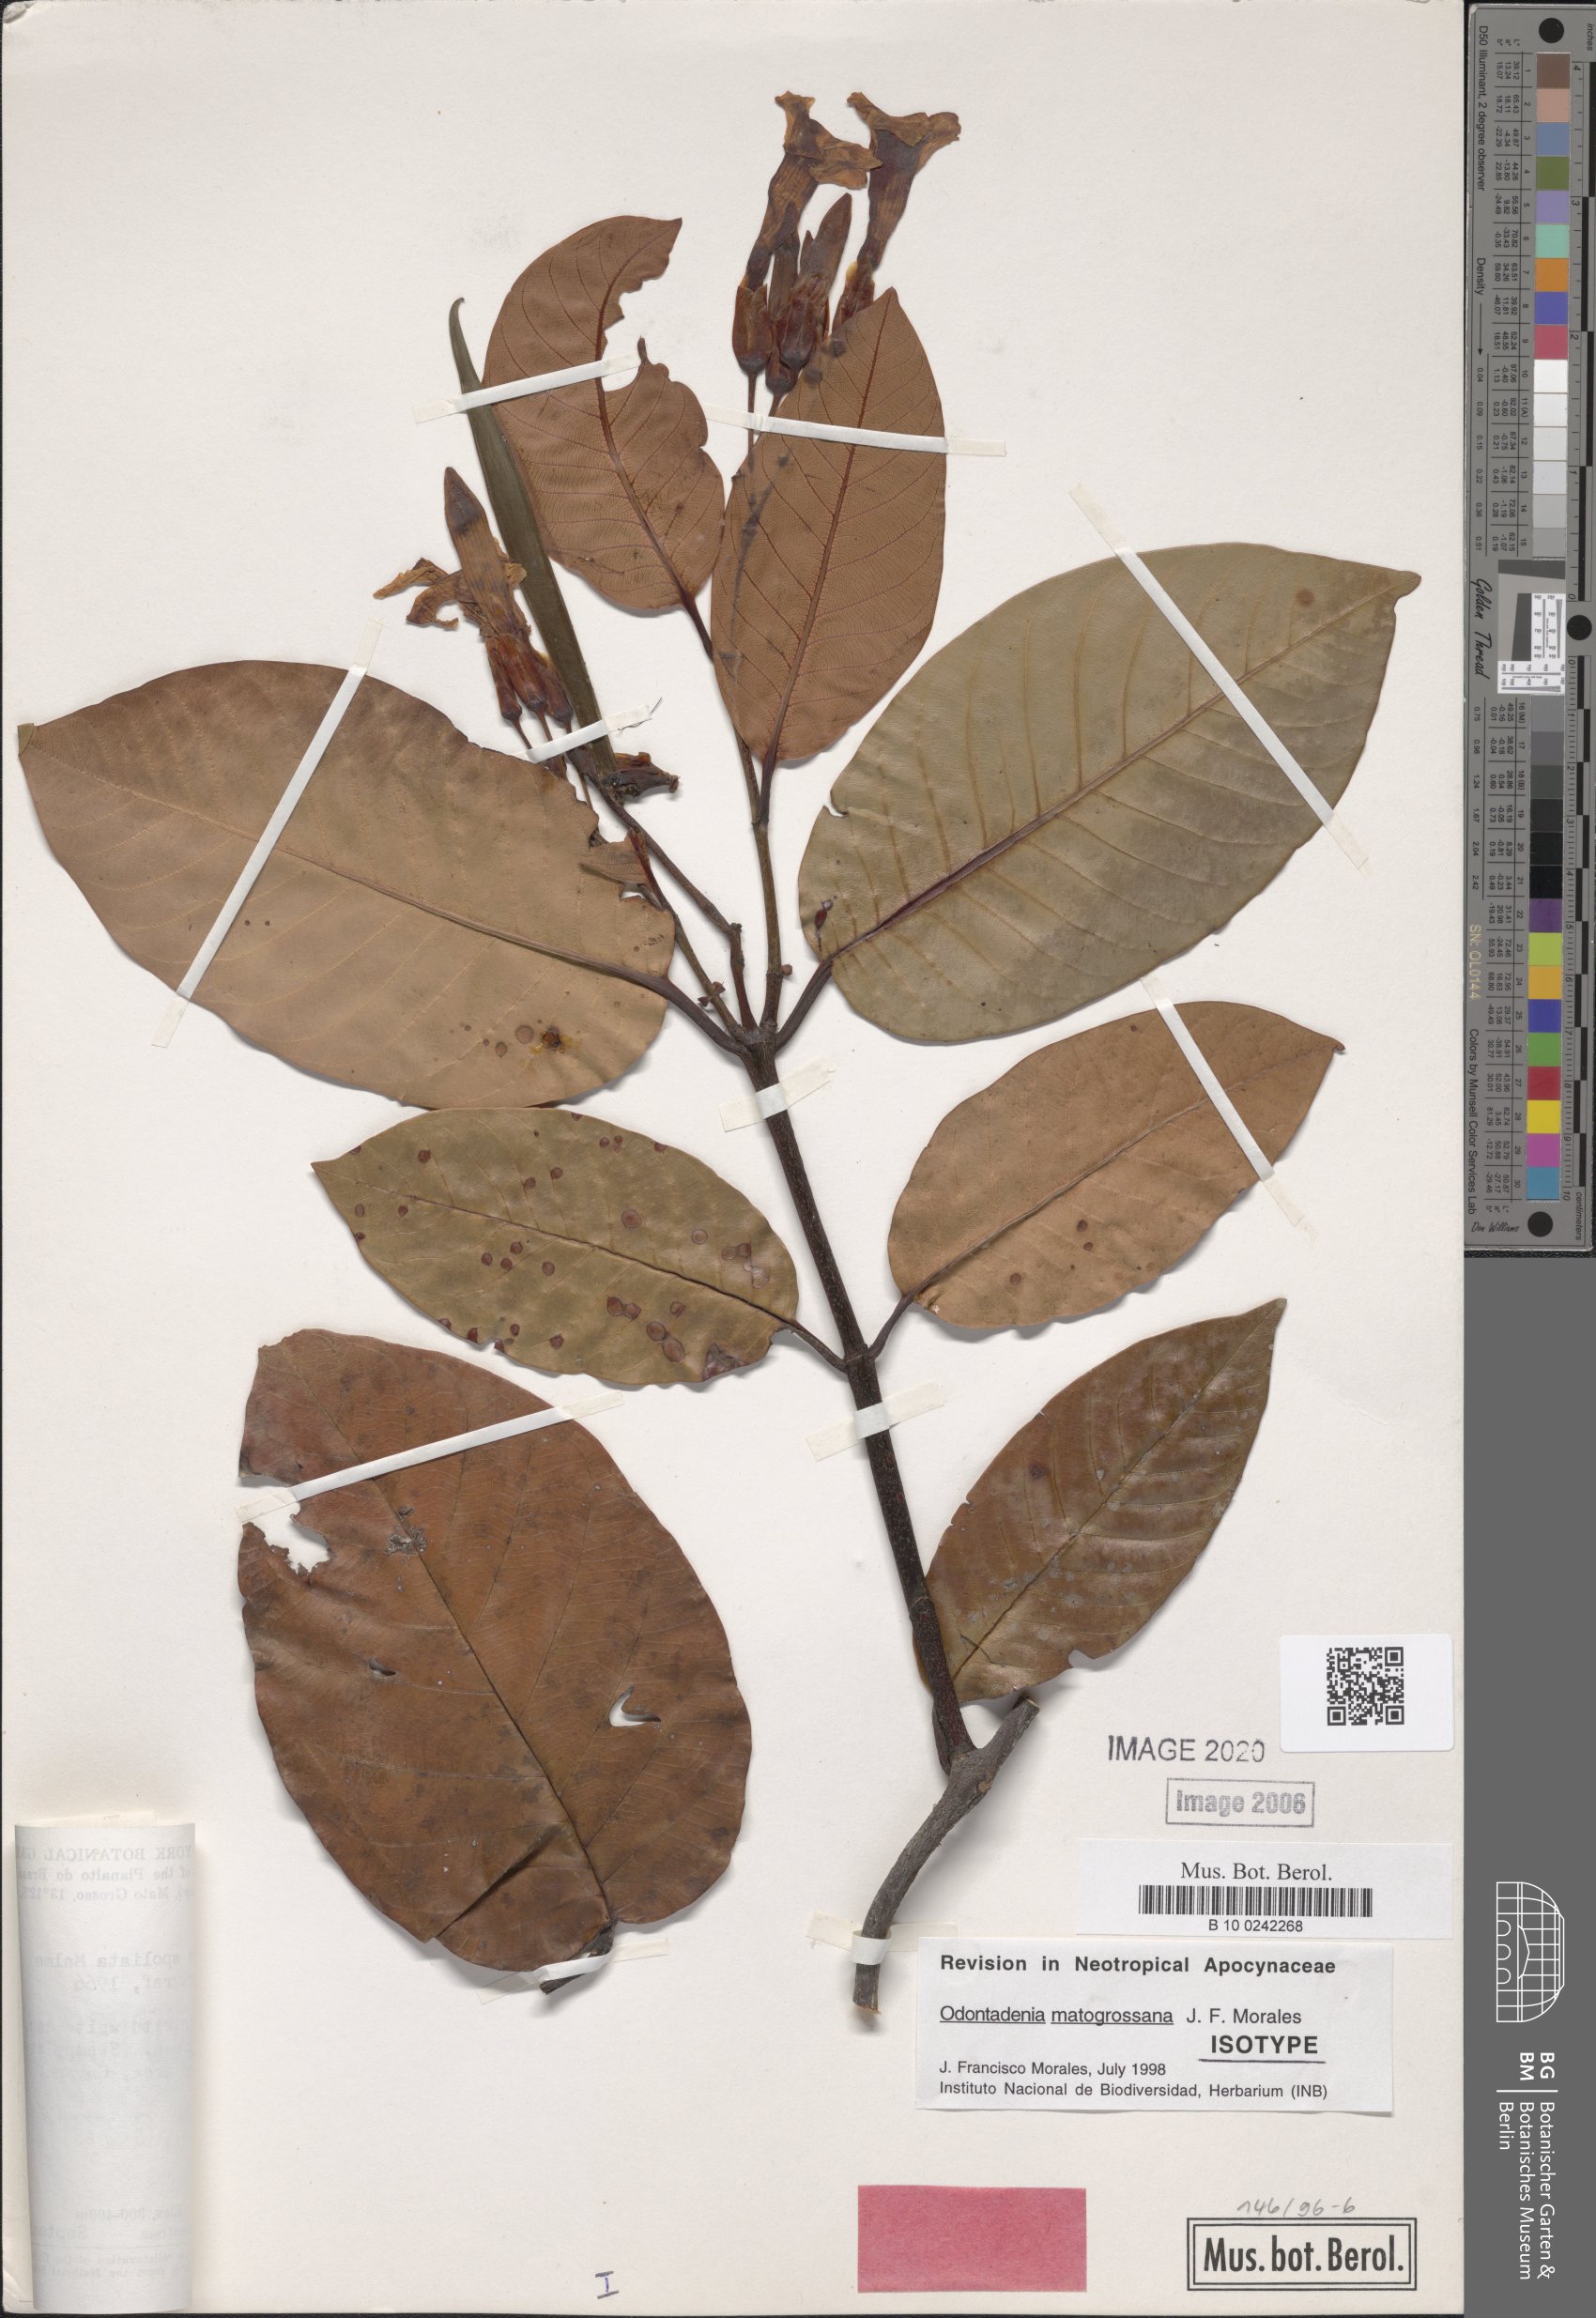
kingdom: Plantae
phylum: Tracheophyta
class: Magnoliopsida
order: Gentianales
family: Apocynaceae
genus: Odontadenia
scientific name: Odontadenia matogrossana
